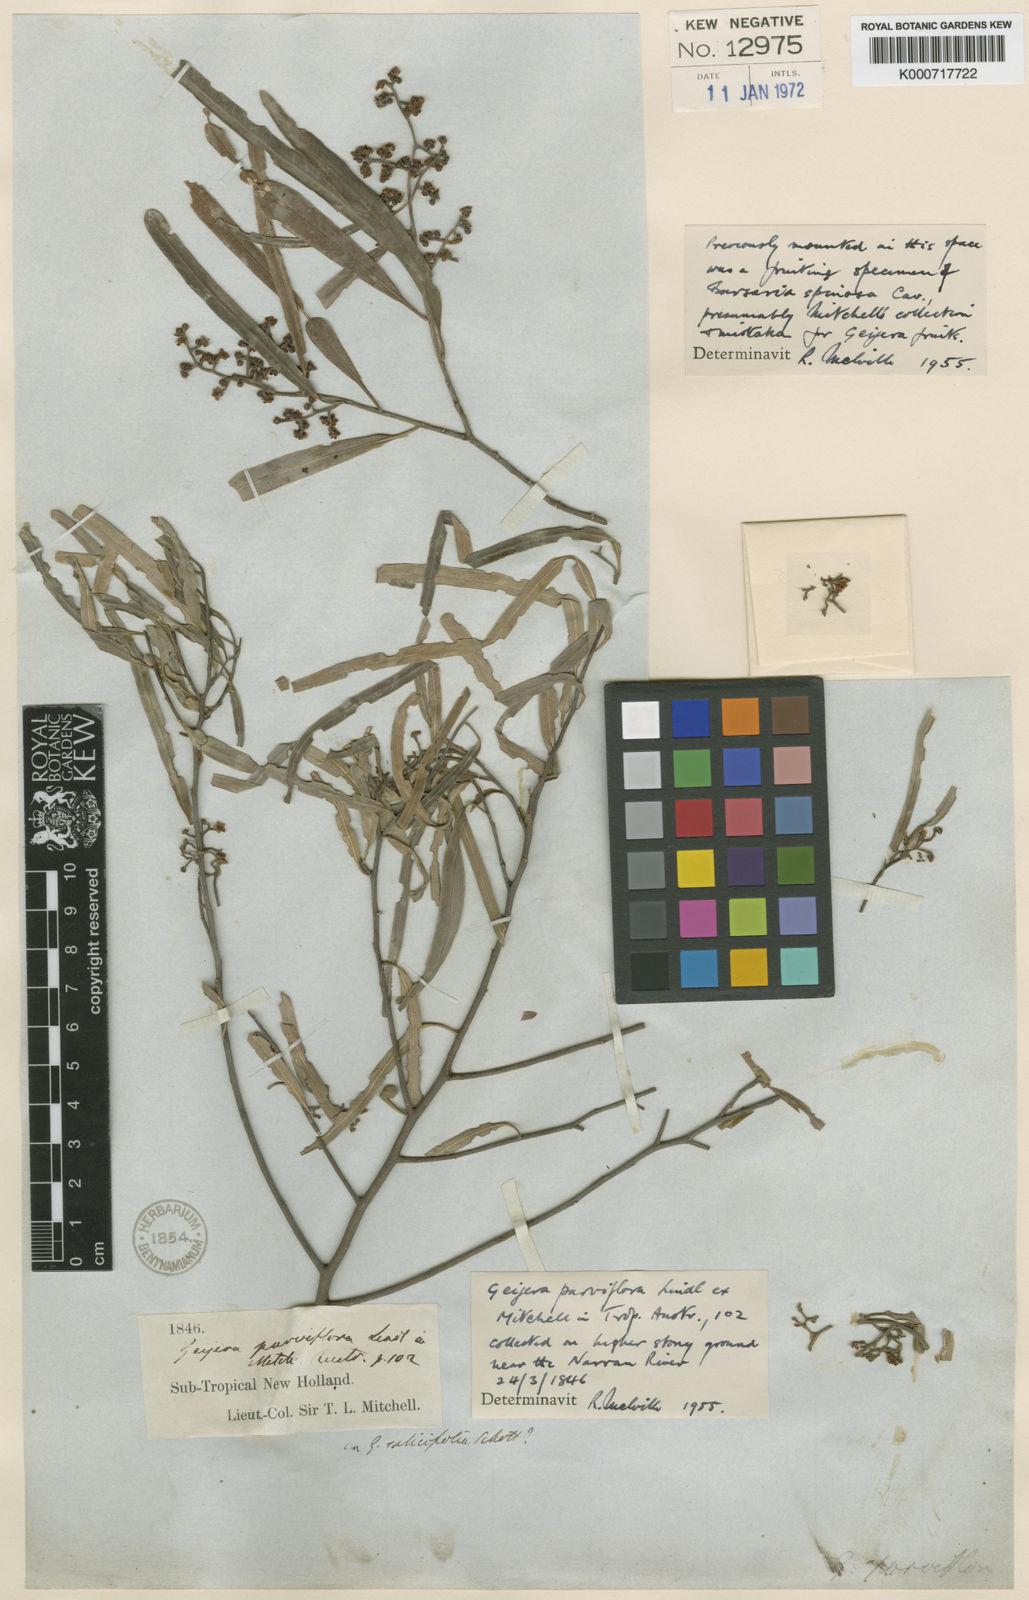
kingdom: Plantae
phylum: Tracheophyta
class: Magnoliopsida
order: Sapindales
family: Rutaceae
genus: Geijera
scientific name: Geijera parviflora
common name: Wilga
